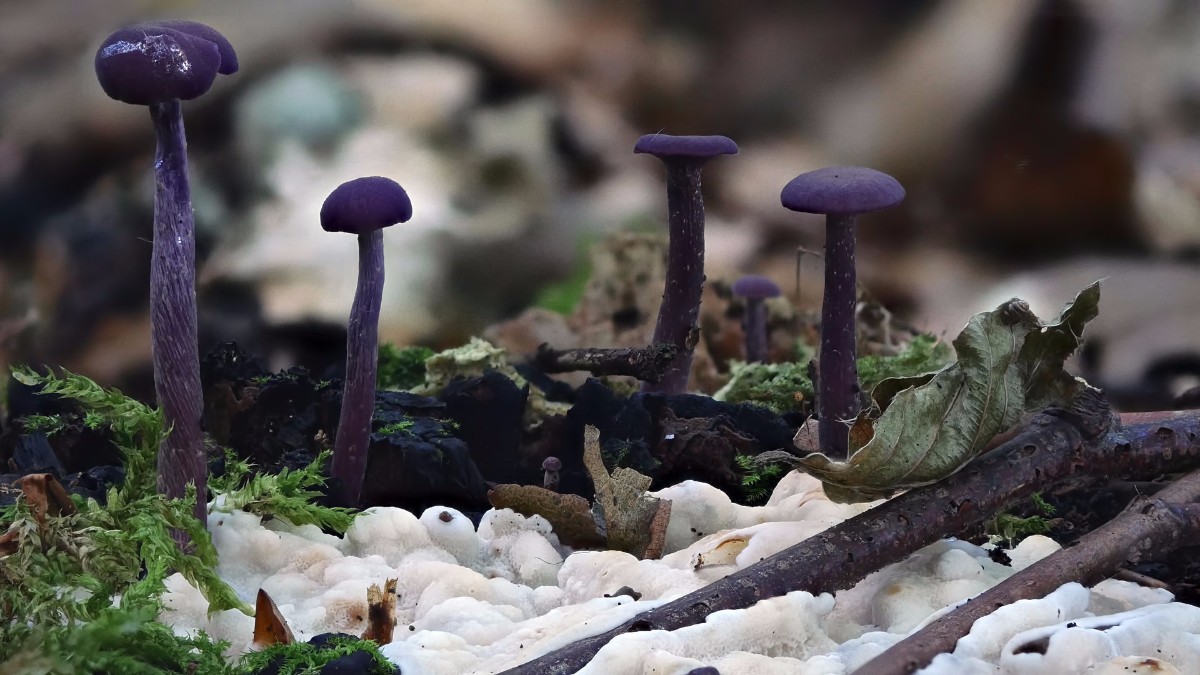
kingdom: Fungi
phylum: Basidiomycota
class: Agaricomycetes
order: Polyporales
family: Meruliaceae
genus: Phlebia
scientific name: Phlebia tremellosa
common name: bævrende åresvamp
